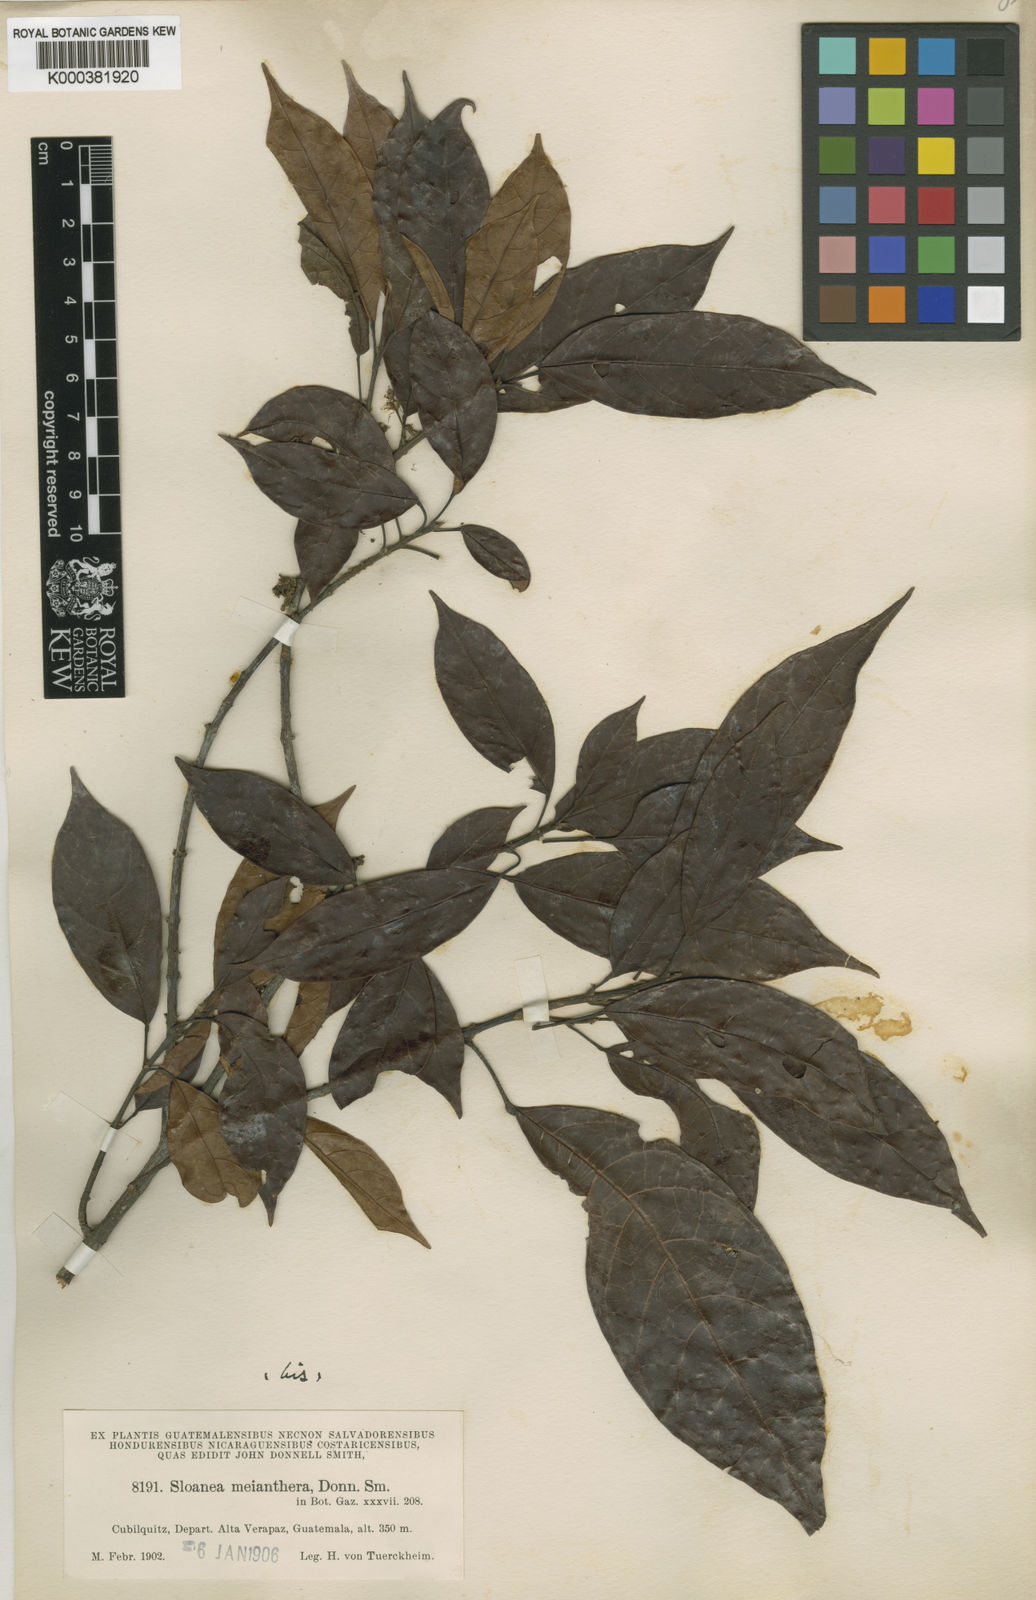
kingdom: Plantae
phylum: Tracheophyta
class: Magnoliopsida
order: Oxalidales
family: Elaeocarpaceae
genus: Sloanea
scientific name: Sloanea meianthera
